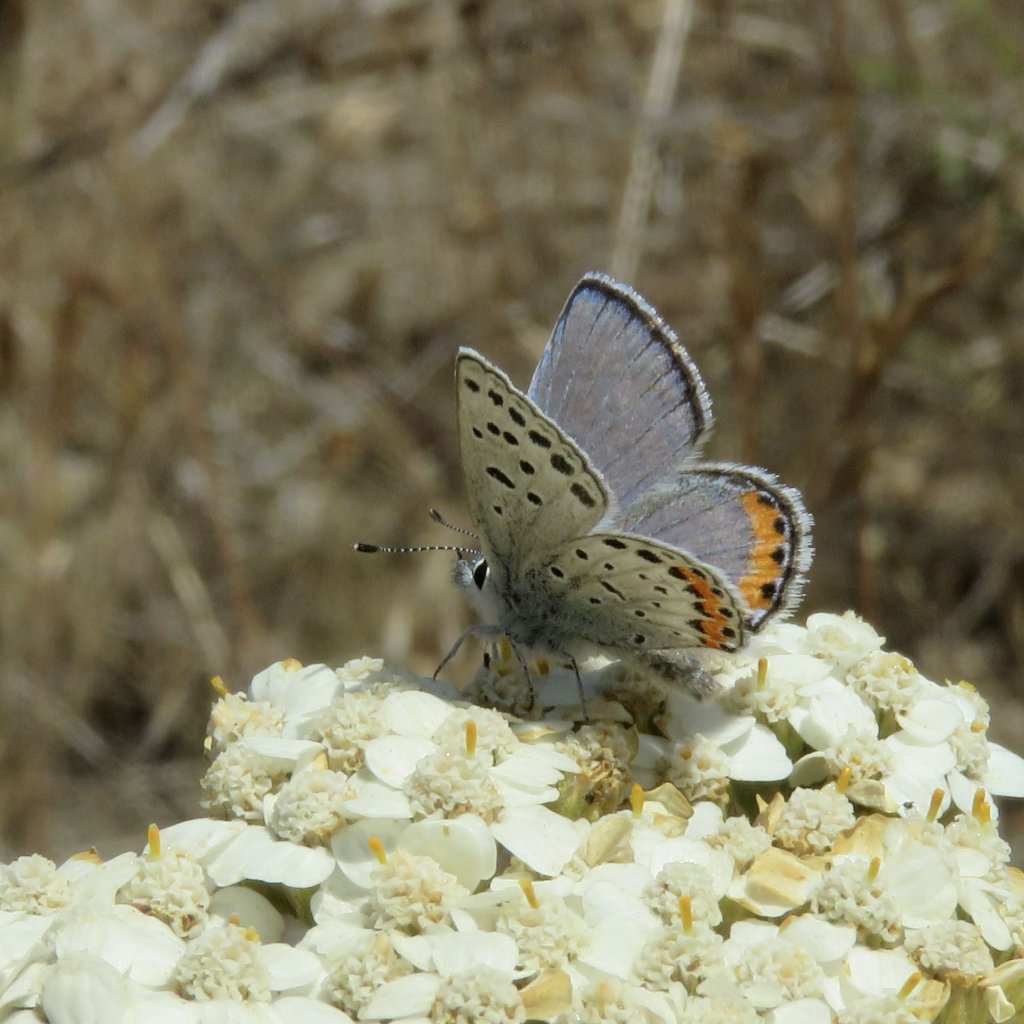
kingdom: Animalia
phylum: Arthropoda
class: Insecta
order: Lepidoptera
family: Lycaenidae
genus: Plebejus
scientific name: Plebejus acmon
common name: Acmon Blue
